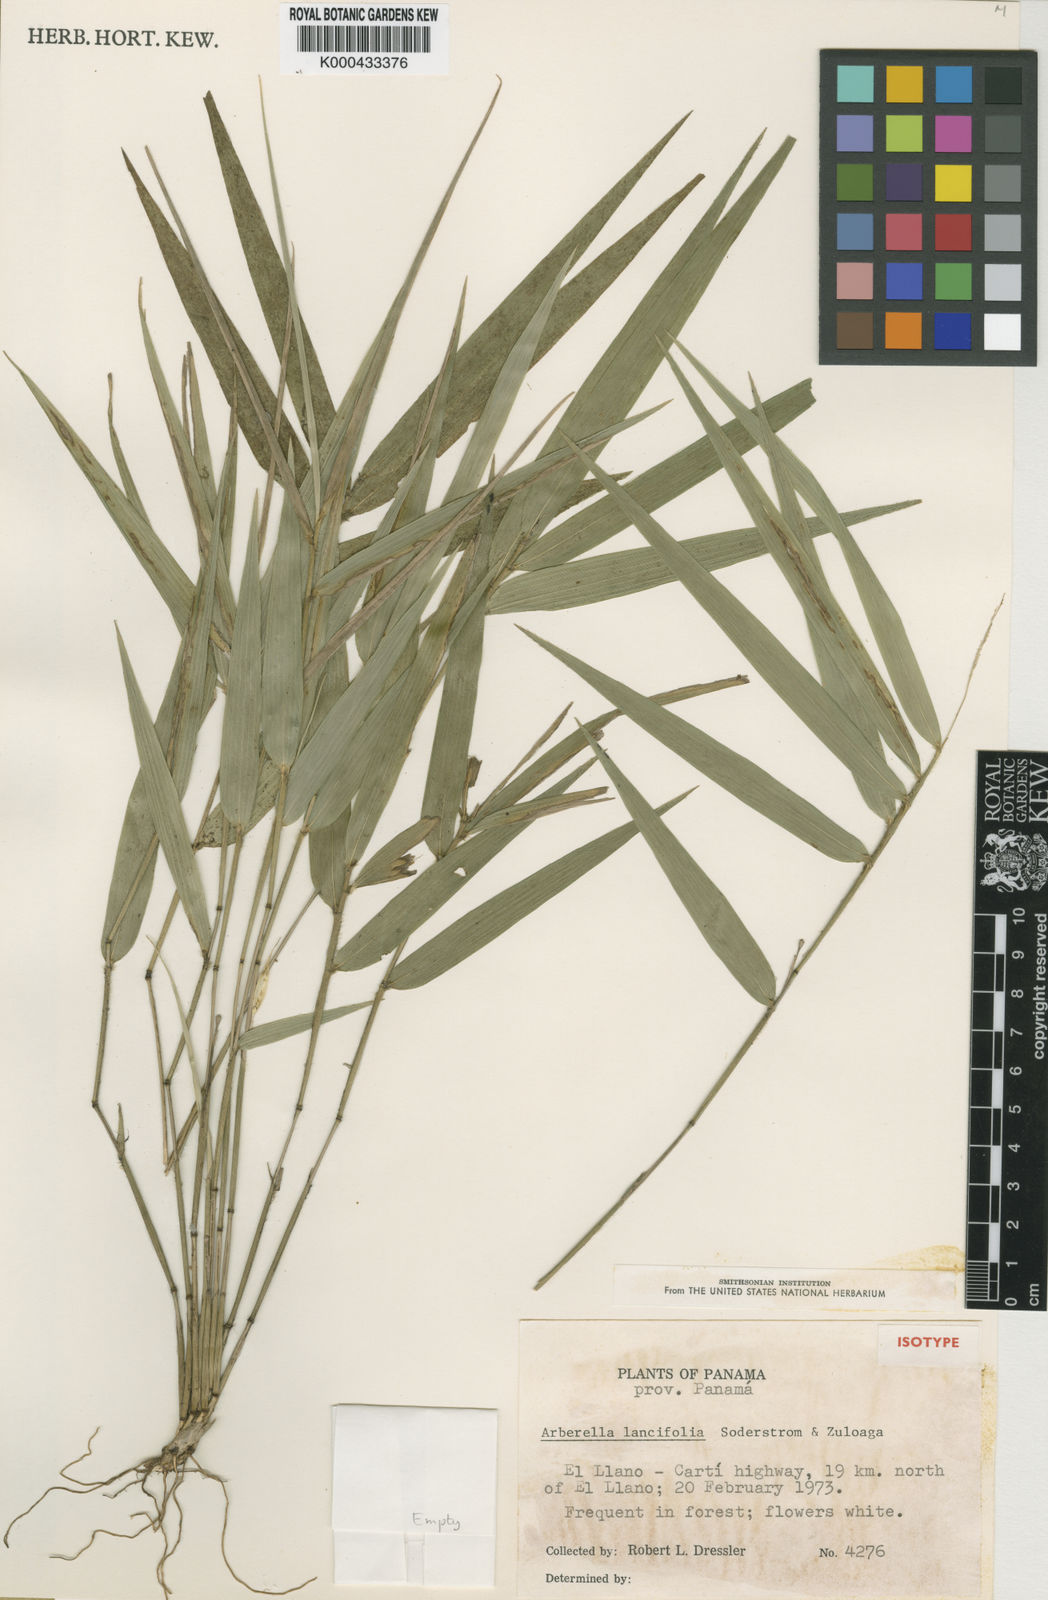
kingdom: Plantae
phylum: Tracheophyta
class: Liliopsida
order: Poales
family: Poaceae
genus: Arberella
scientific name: Arberella lancifolia
